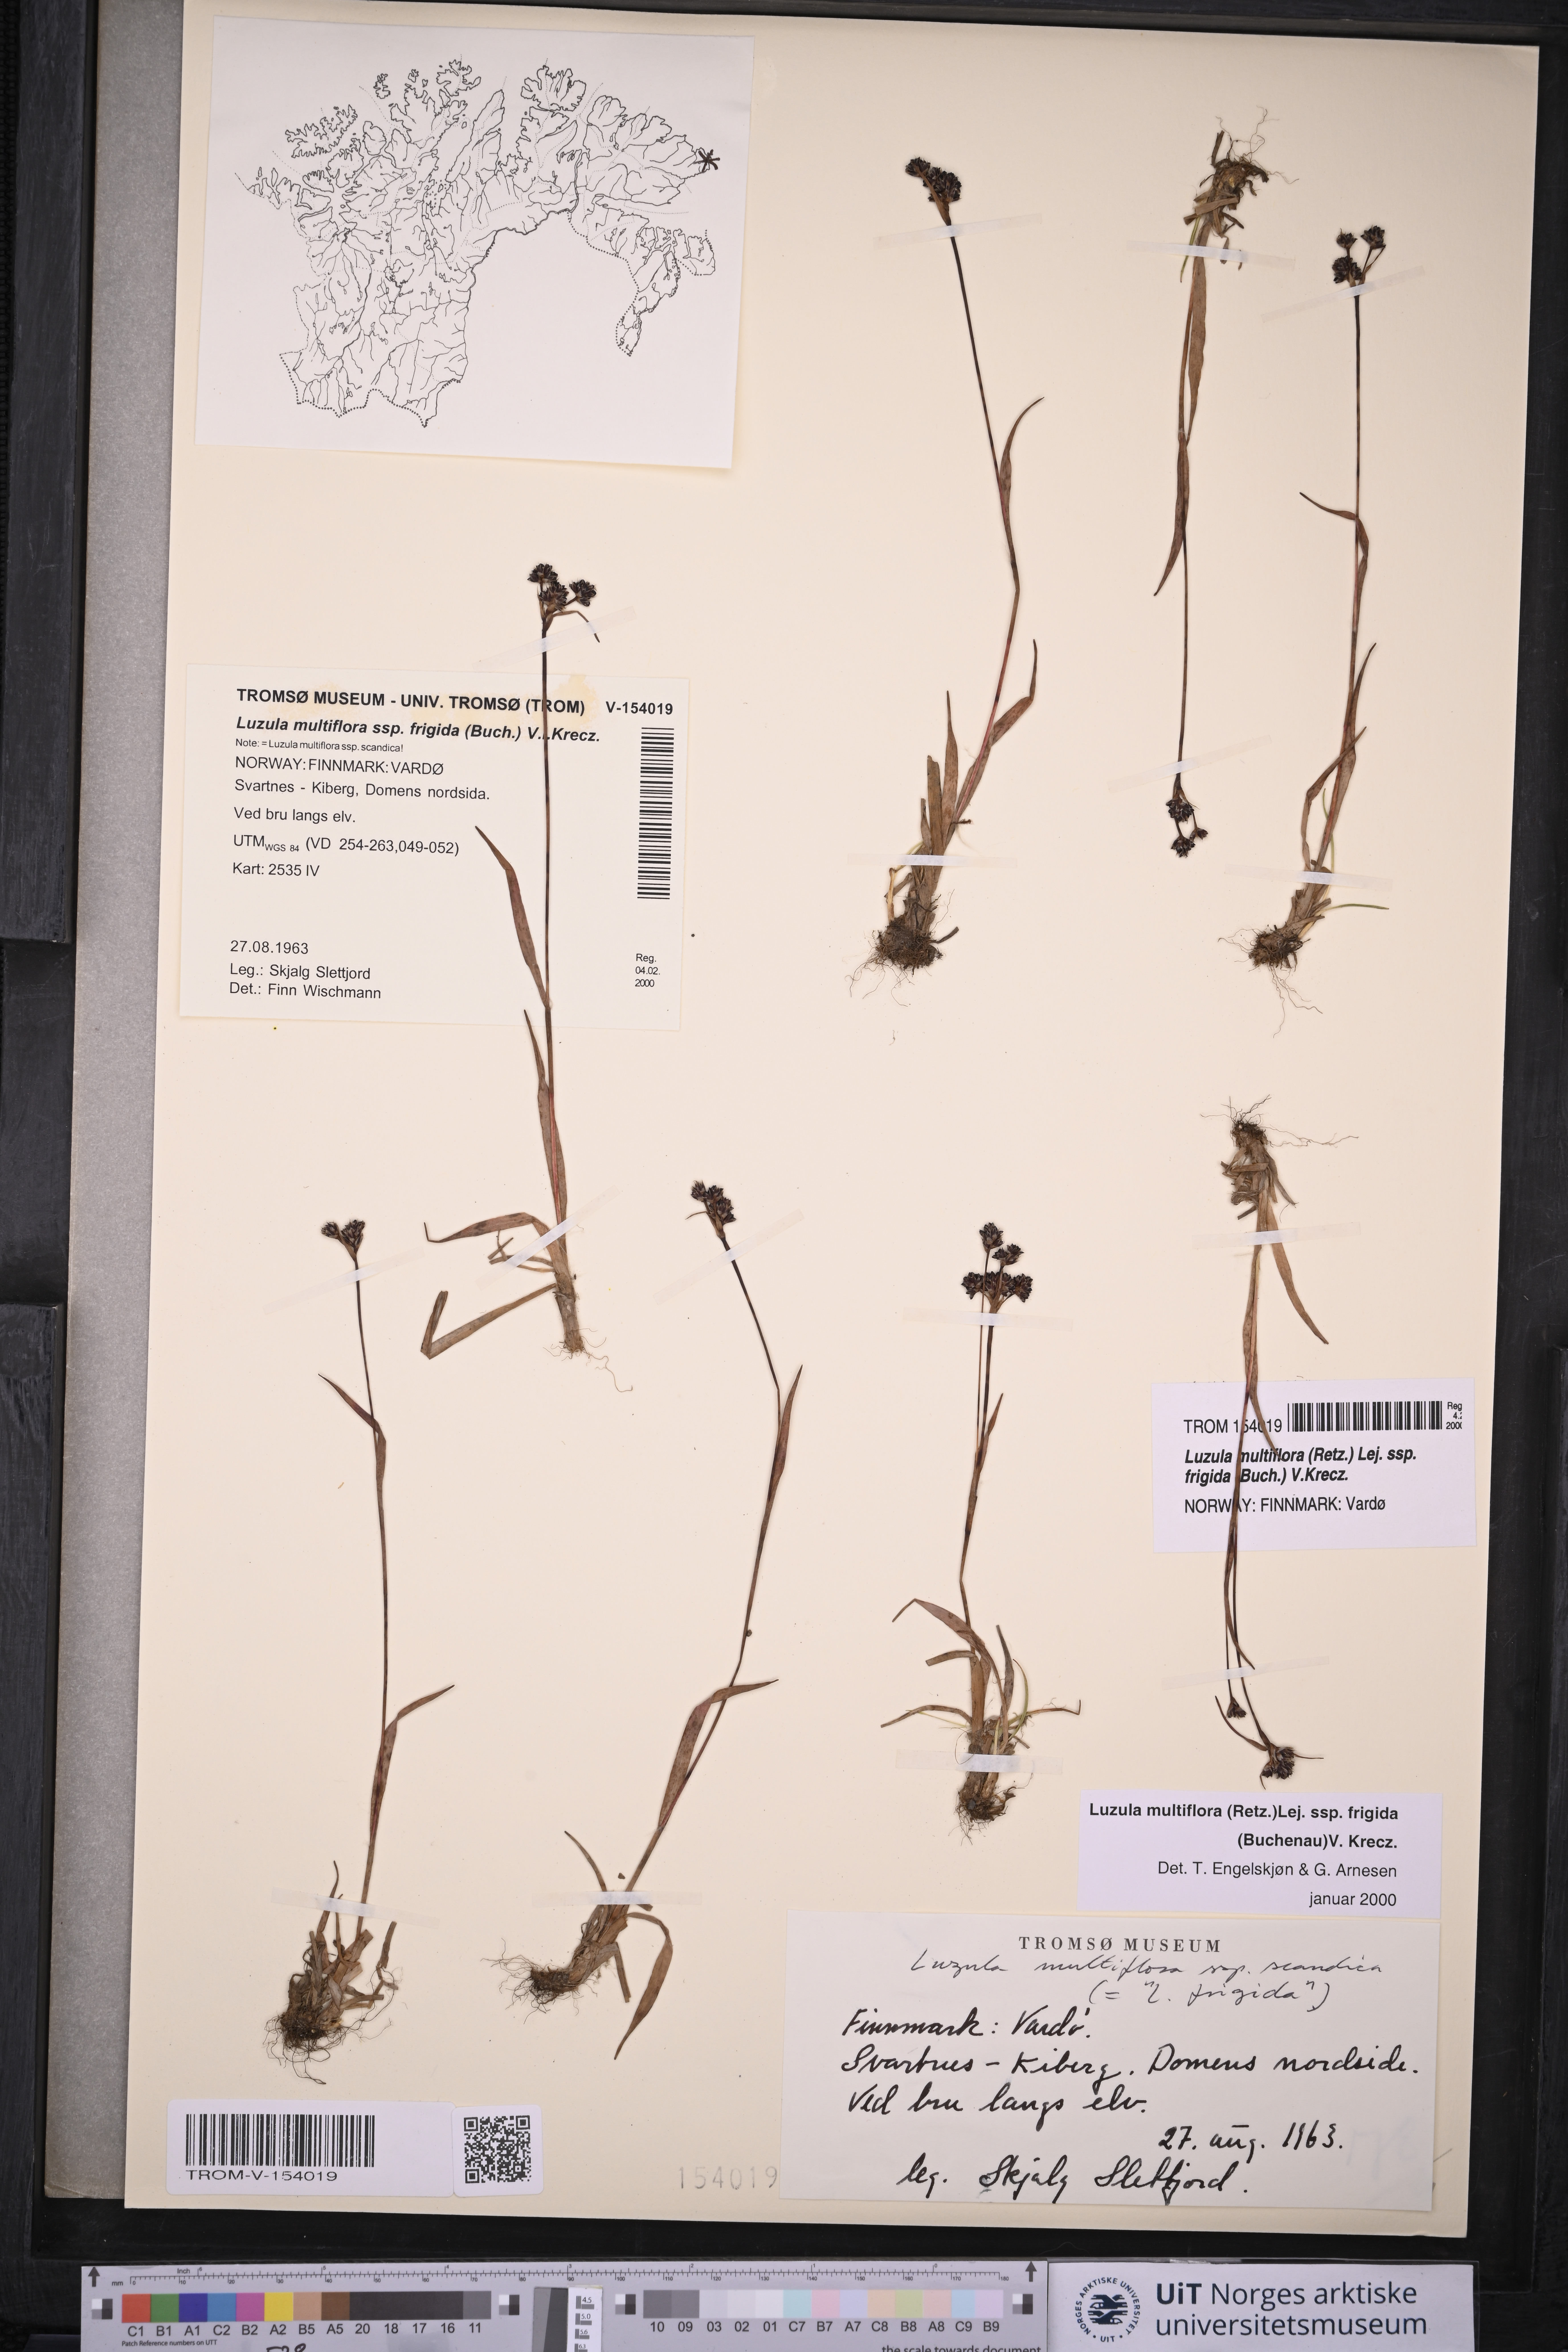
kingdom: Plantae
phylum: Tracheophyta
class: Liliopsida
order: Poales
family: Juncaceae
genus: Luzula
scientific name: Luzula multiflora
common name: Heath wood-rush
